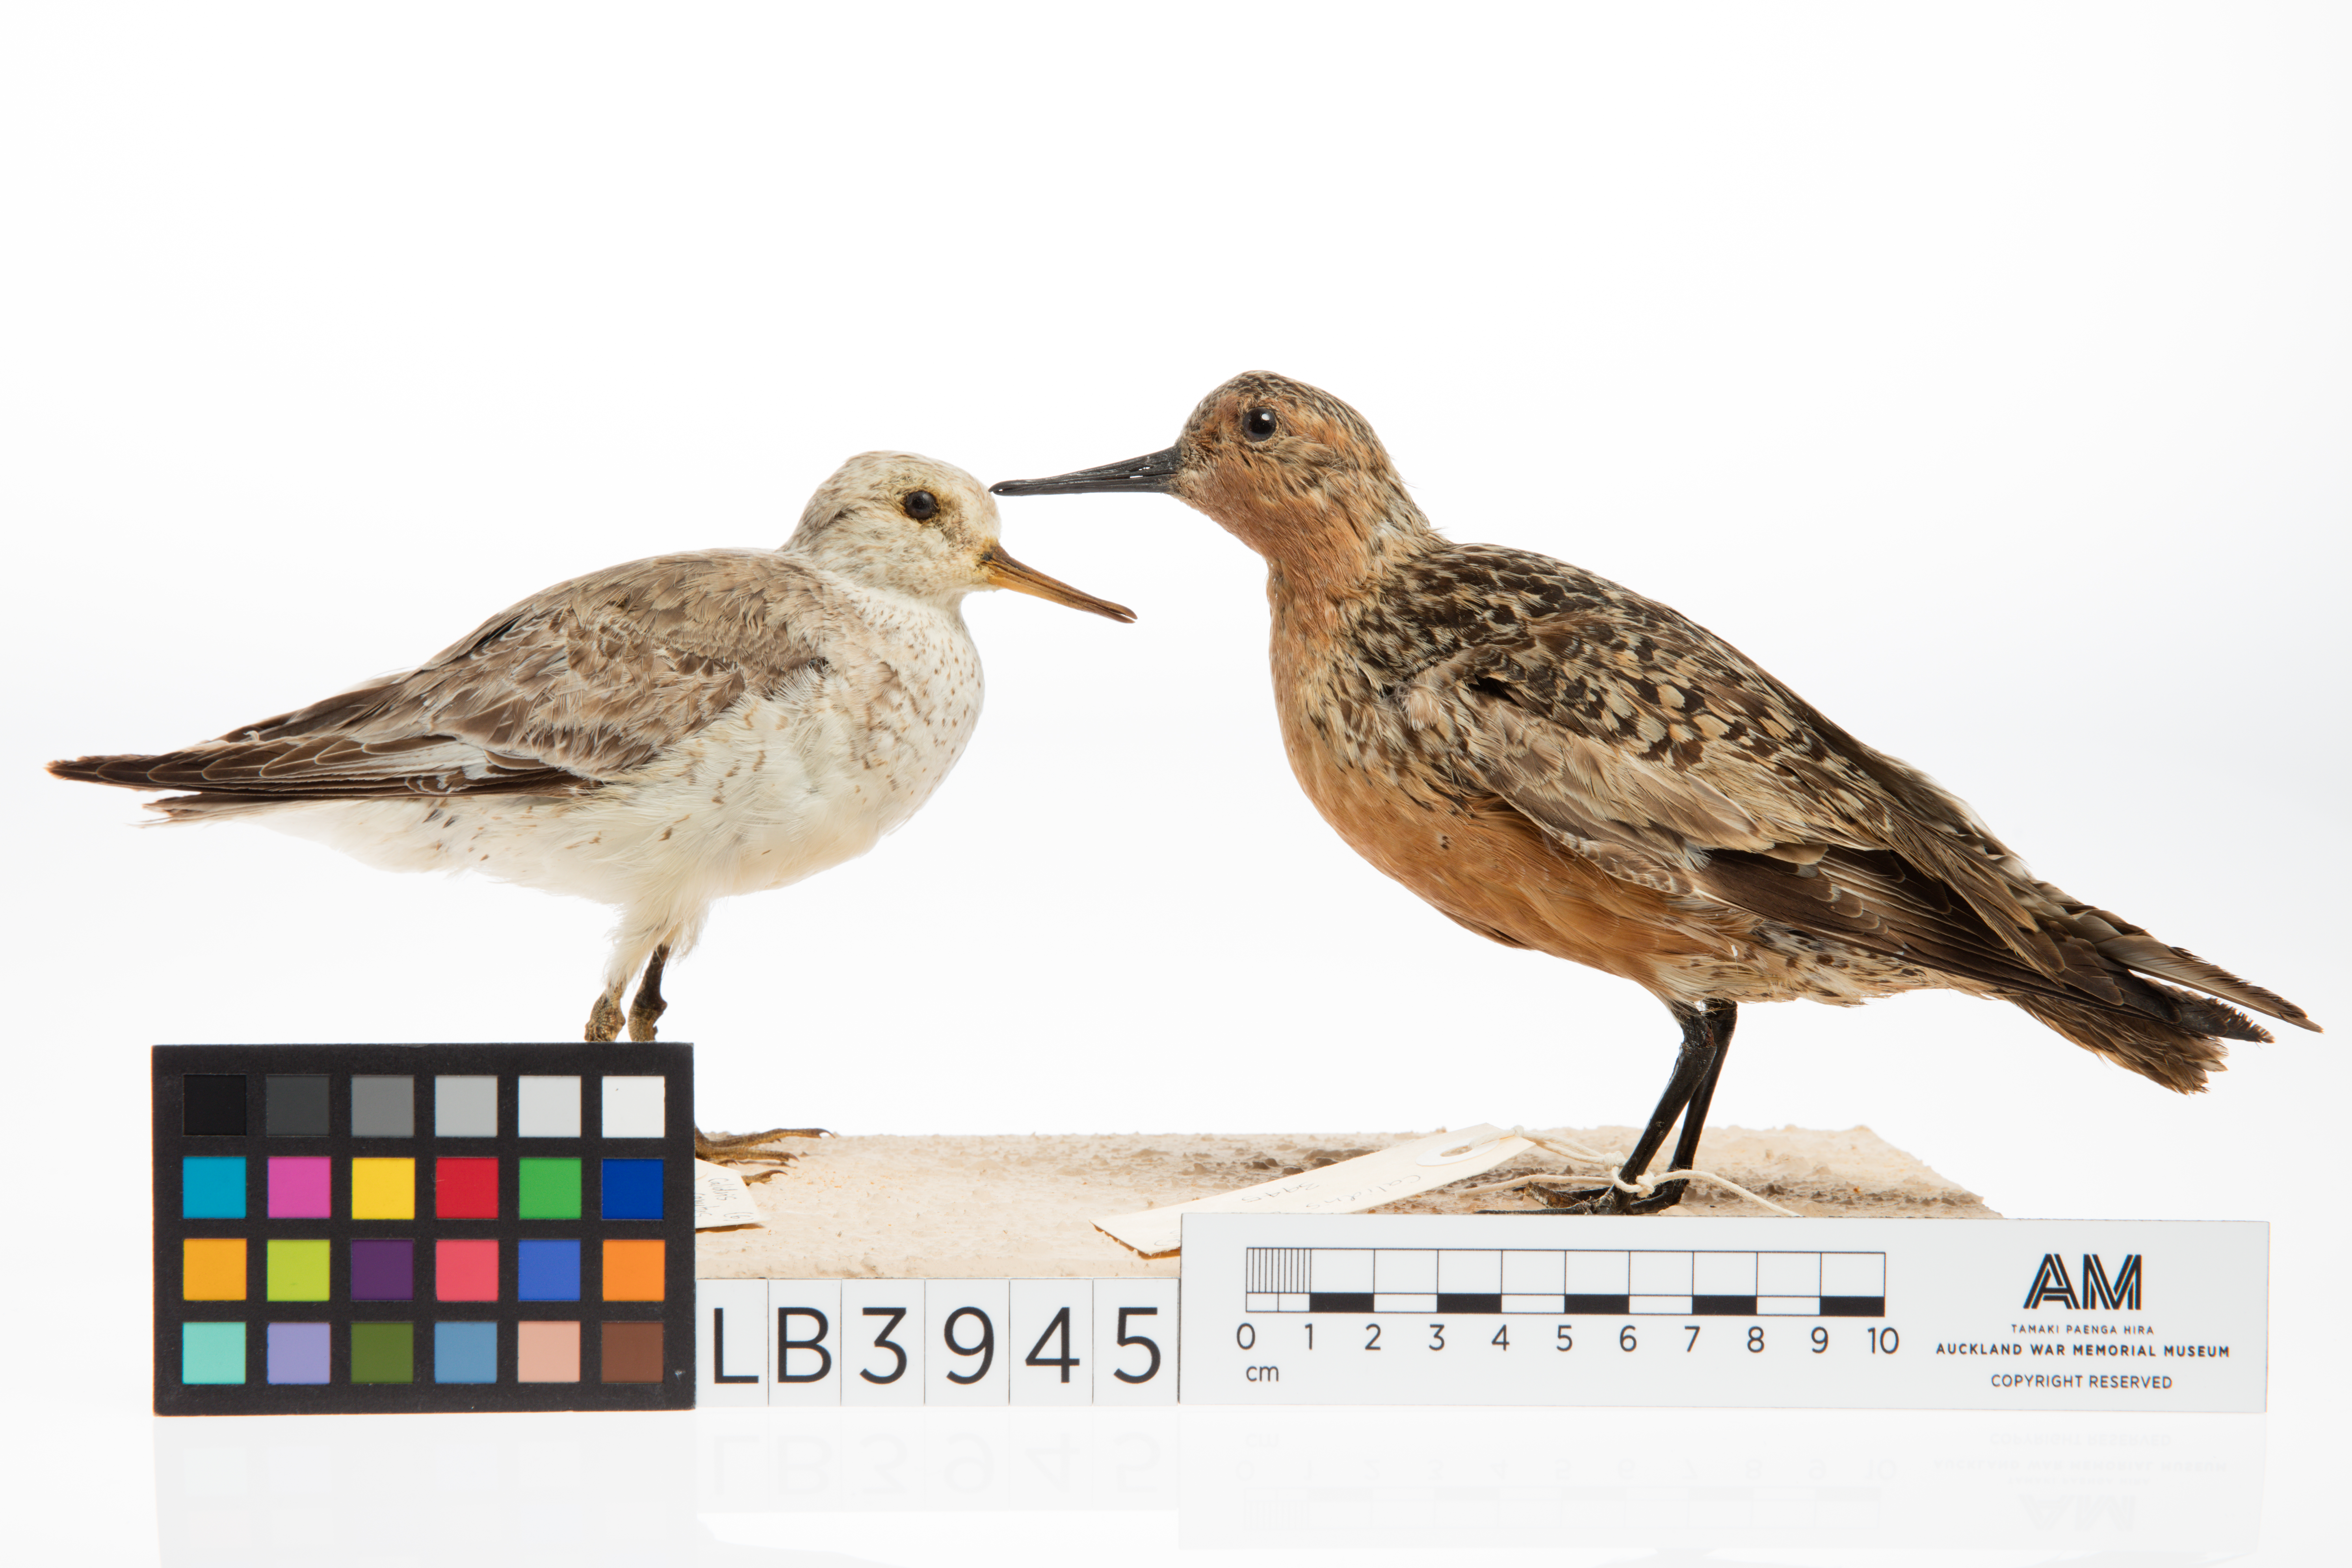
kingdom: Animalia
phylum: Chordata
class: Aves
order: Charadriiformes
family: Scolopacidae
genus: Calidris
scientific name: Calidris canutus
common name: Red knot
